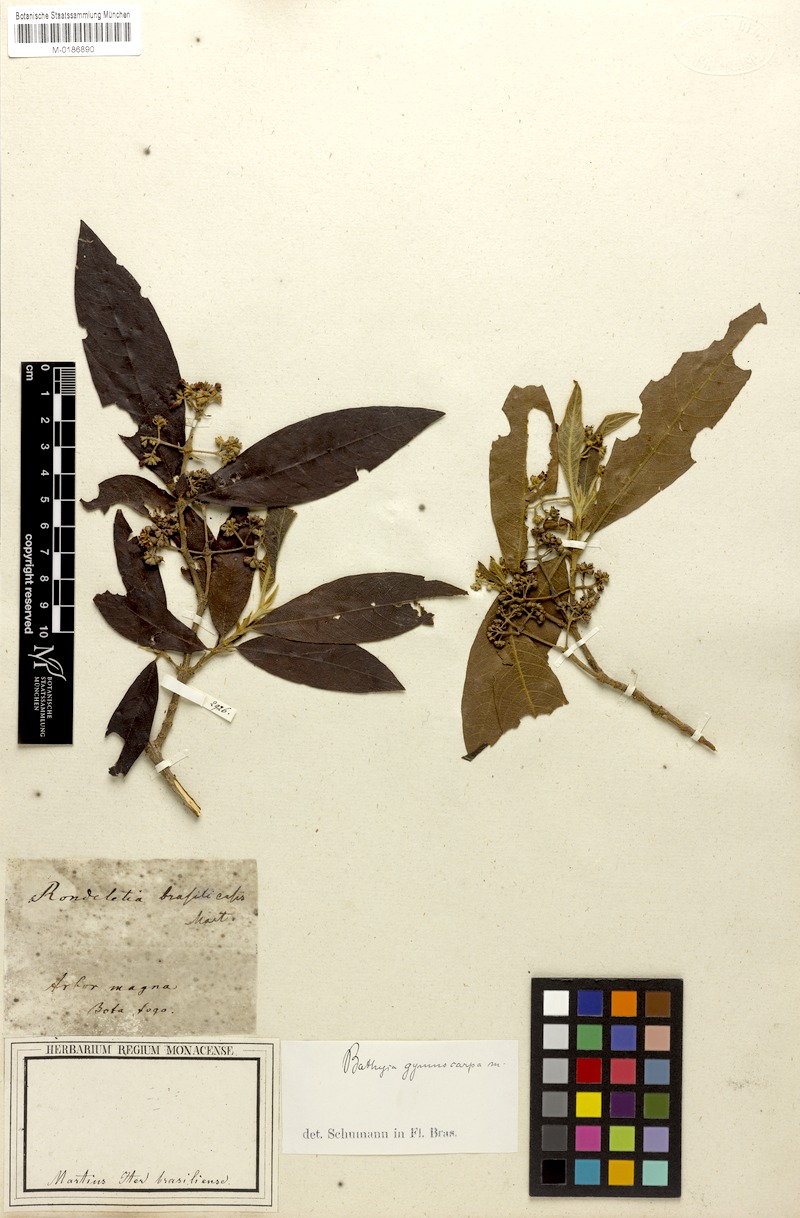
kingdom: Plantae
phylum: Tracheophyta
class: Magnoliopsida
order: Gentianales
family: Rubiaceae
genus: Bathysa
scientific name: Bathysa gymnocarpa
